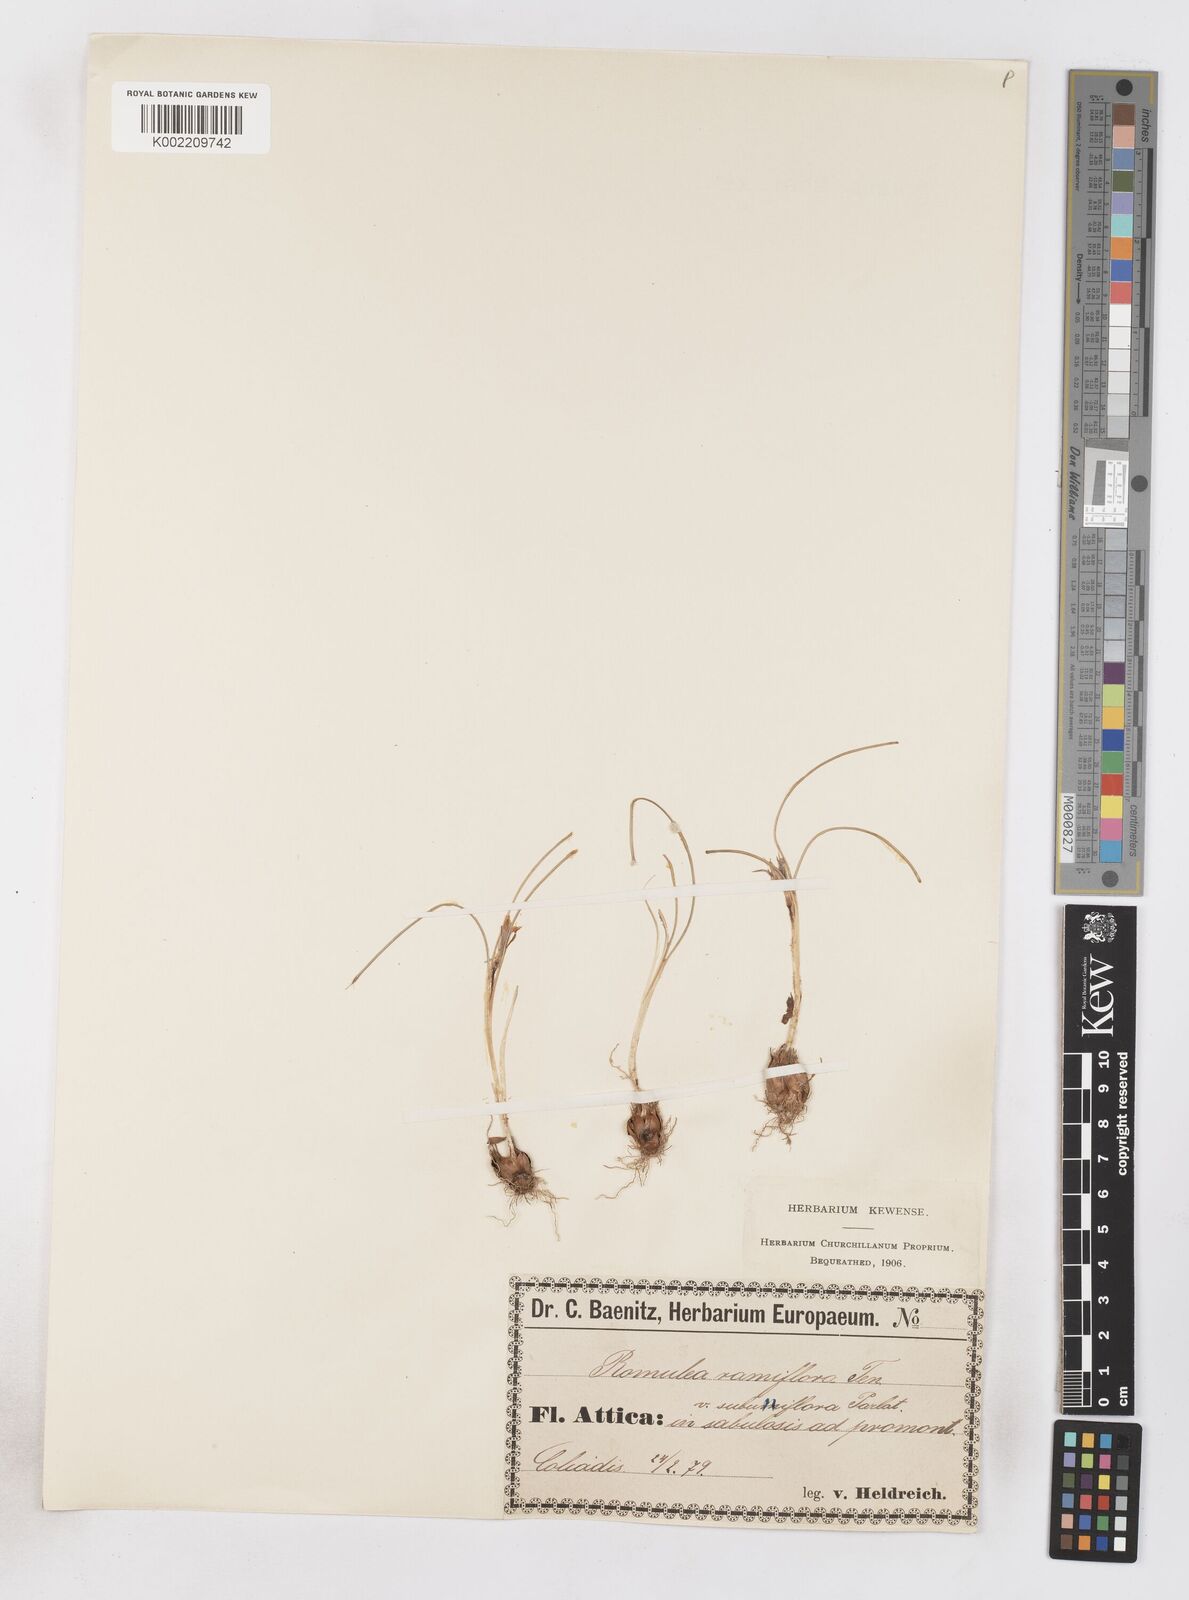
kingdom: Plantae
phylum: Tracheophyta
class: Liliopsida
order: Asparagales
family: Iridaceae
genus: Romulea
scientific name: Romulea columnae
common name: Sand-crocus
